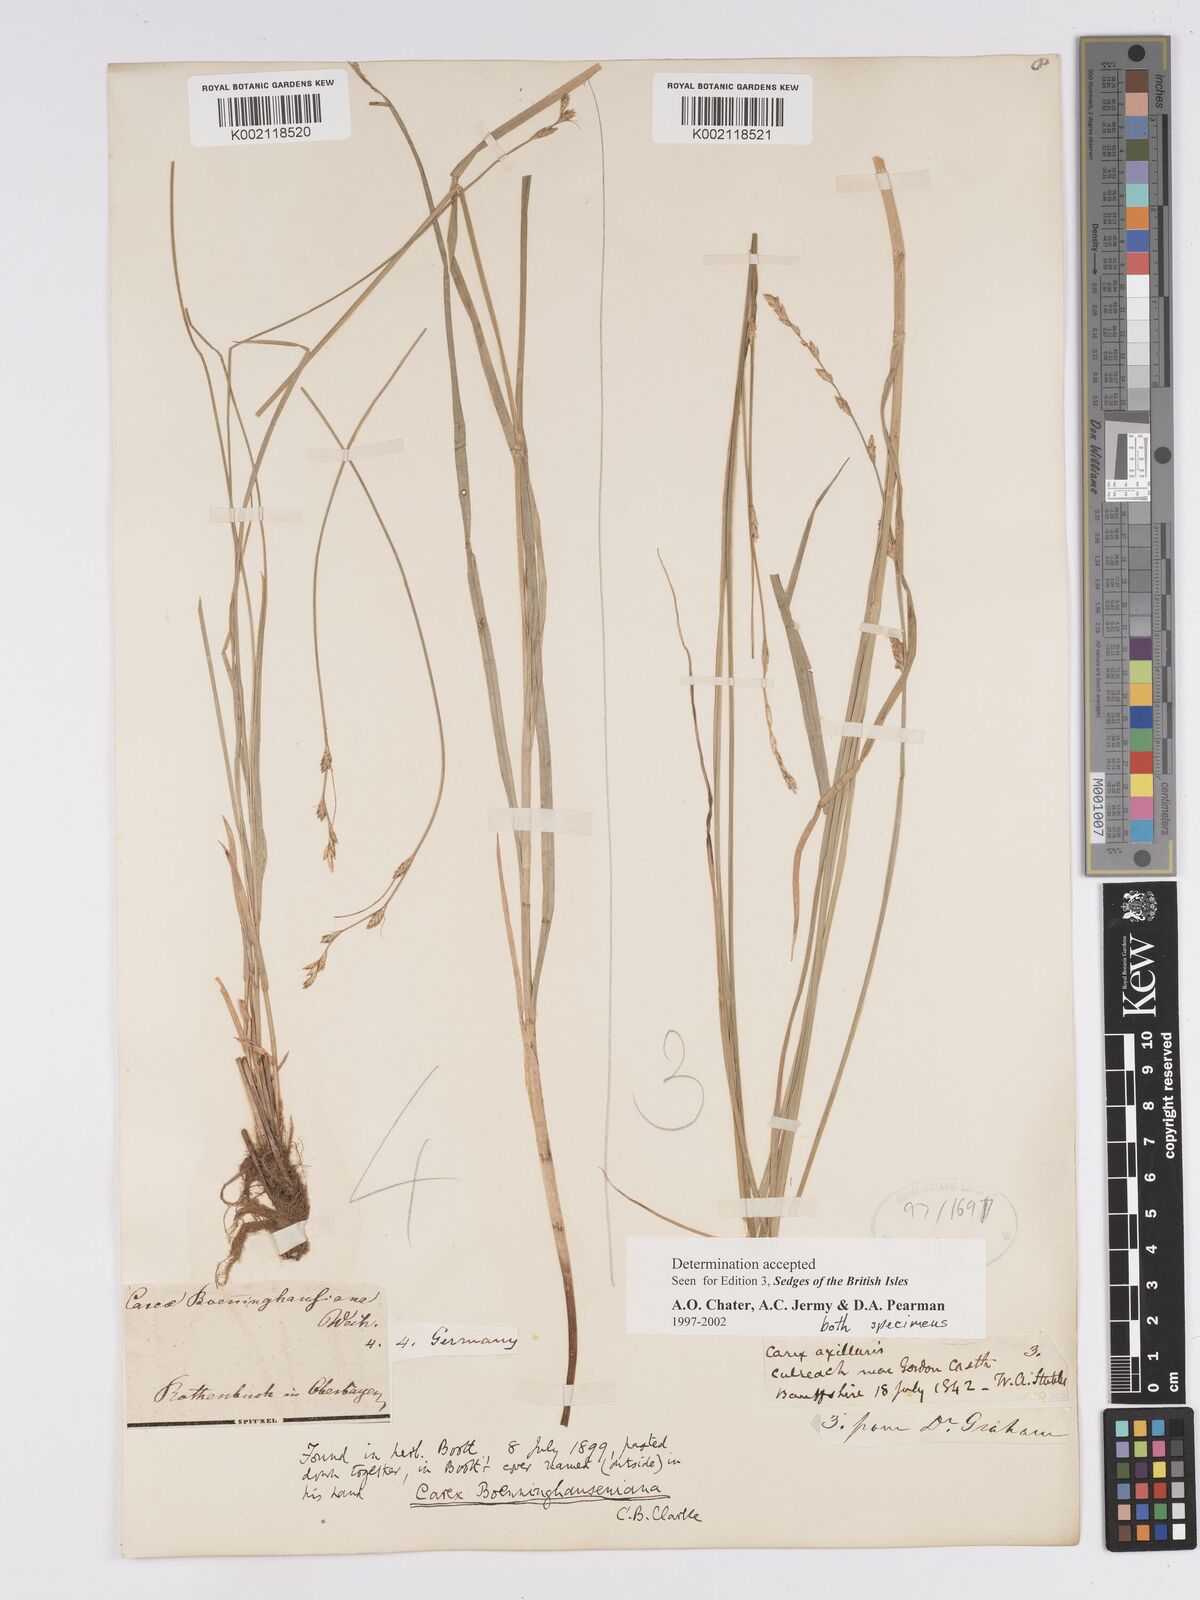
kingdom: Plantae
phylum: Tracheophyta
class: Liliopsida
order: Poales
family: Cyperaceae
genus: Carex
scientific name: Carex boenninghausiana
